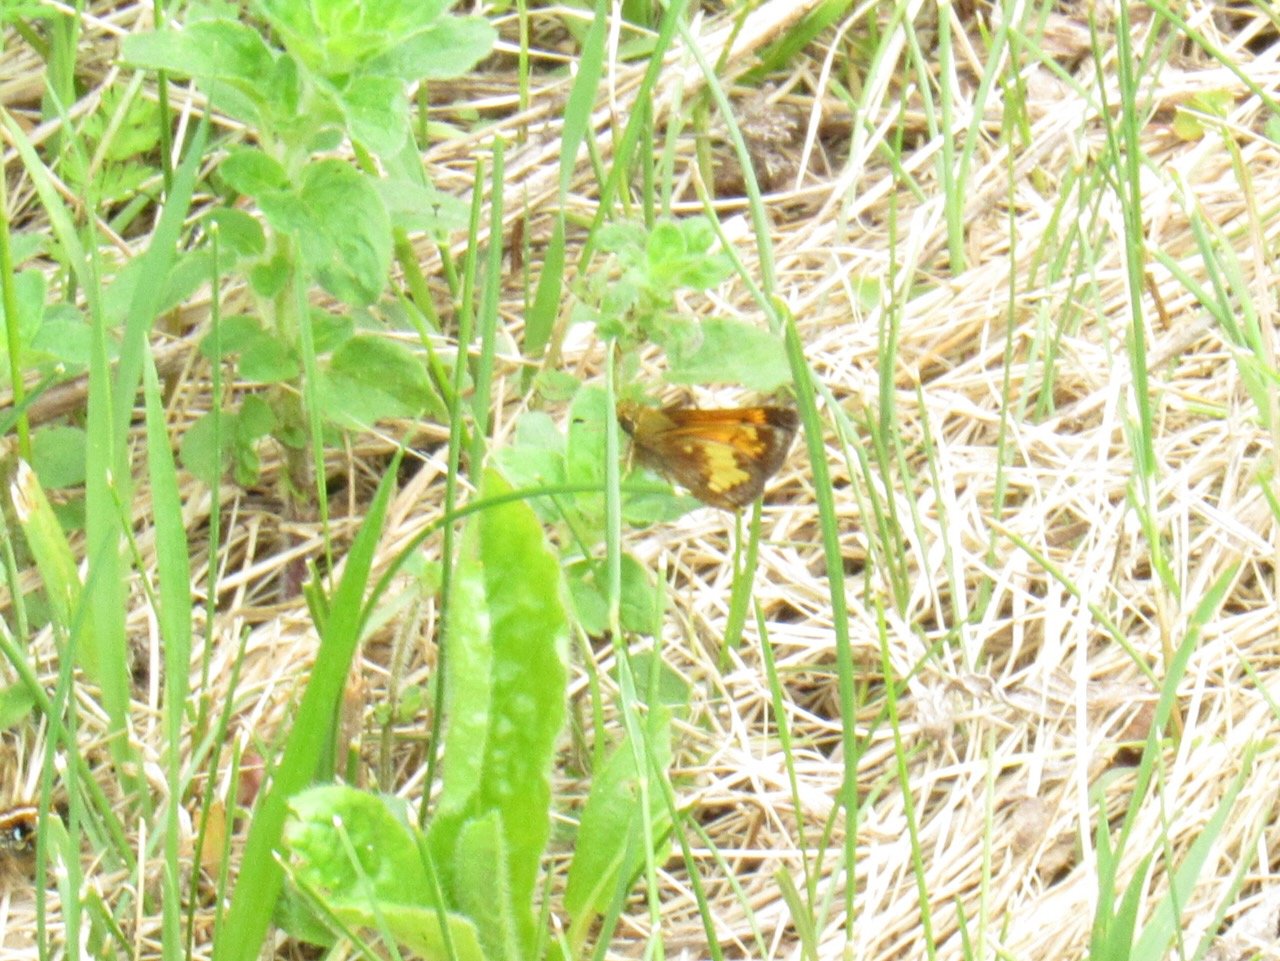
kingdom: Animalia
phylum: Arthropoda
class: Insecta
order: Lepidoptera
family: Hesperiidae
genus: Lon
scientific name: Lon hobomok
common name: Hobomok Skipper
